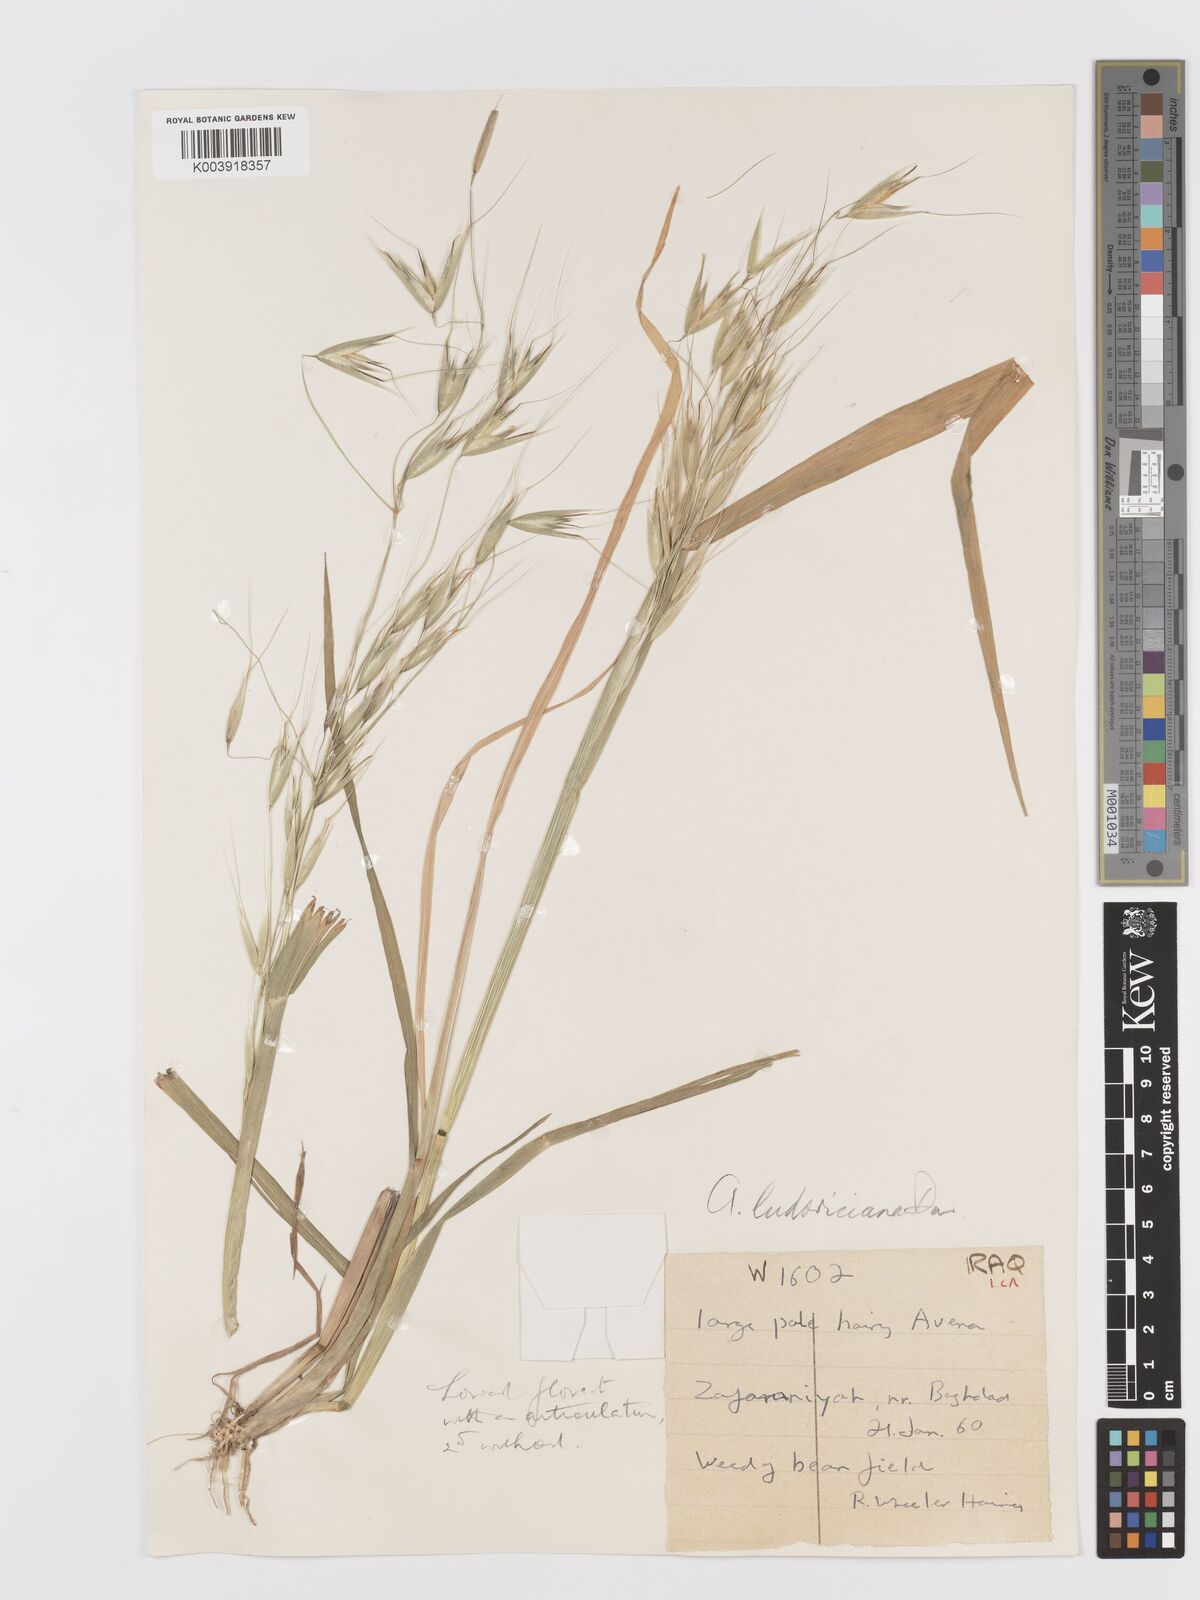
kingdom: Plantae
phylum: Tracheophyta
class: Liliopsida
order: Poales
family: Poaceae
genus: Avena
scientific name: Avena sterilis
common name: Animated oat
